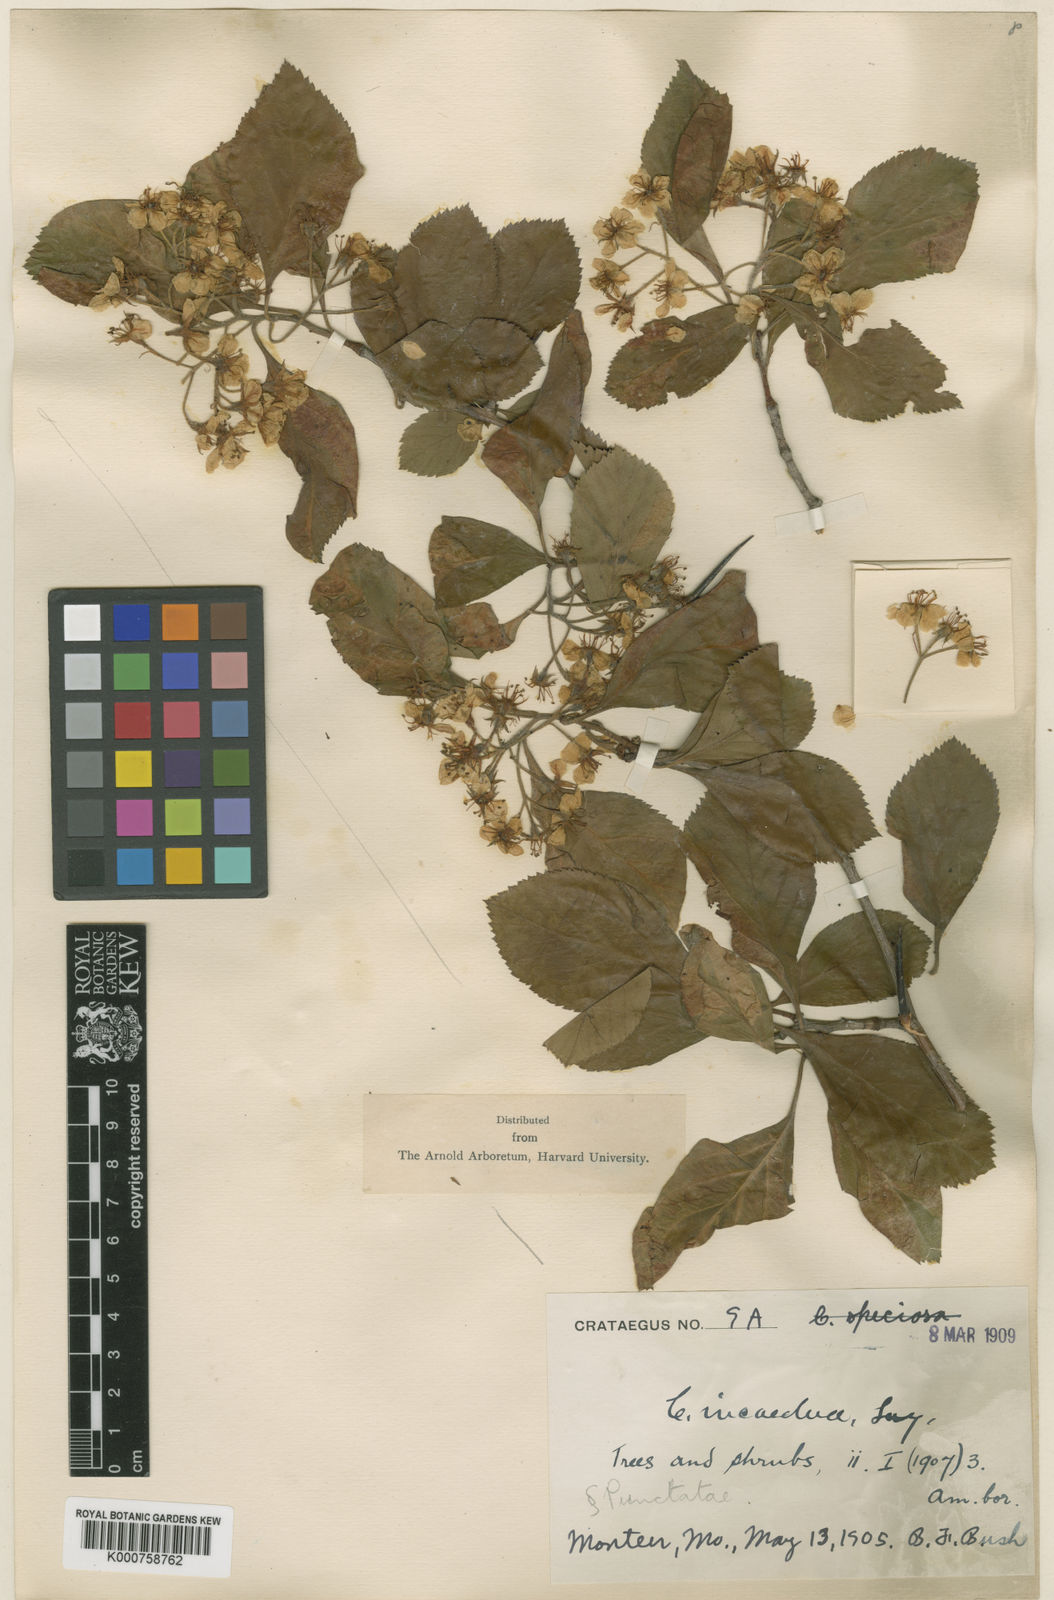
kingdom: Plantae
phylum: Tracheophyta
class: Magnoliopsida
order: Rosales
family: Rosaceae
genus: Crataegus
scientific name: Crataegus incaedua
